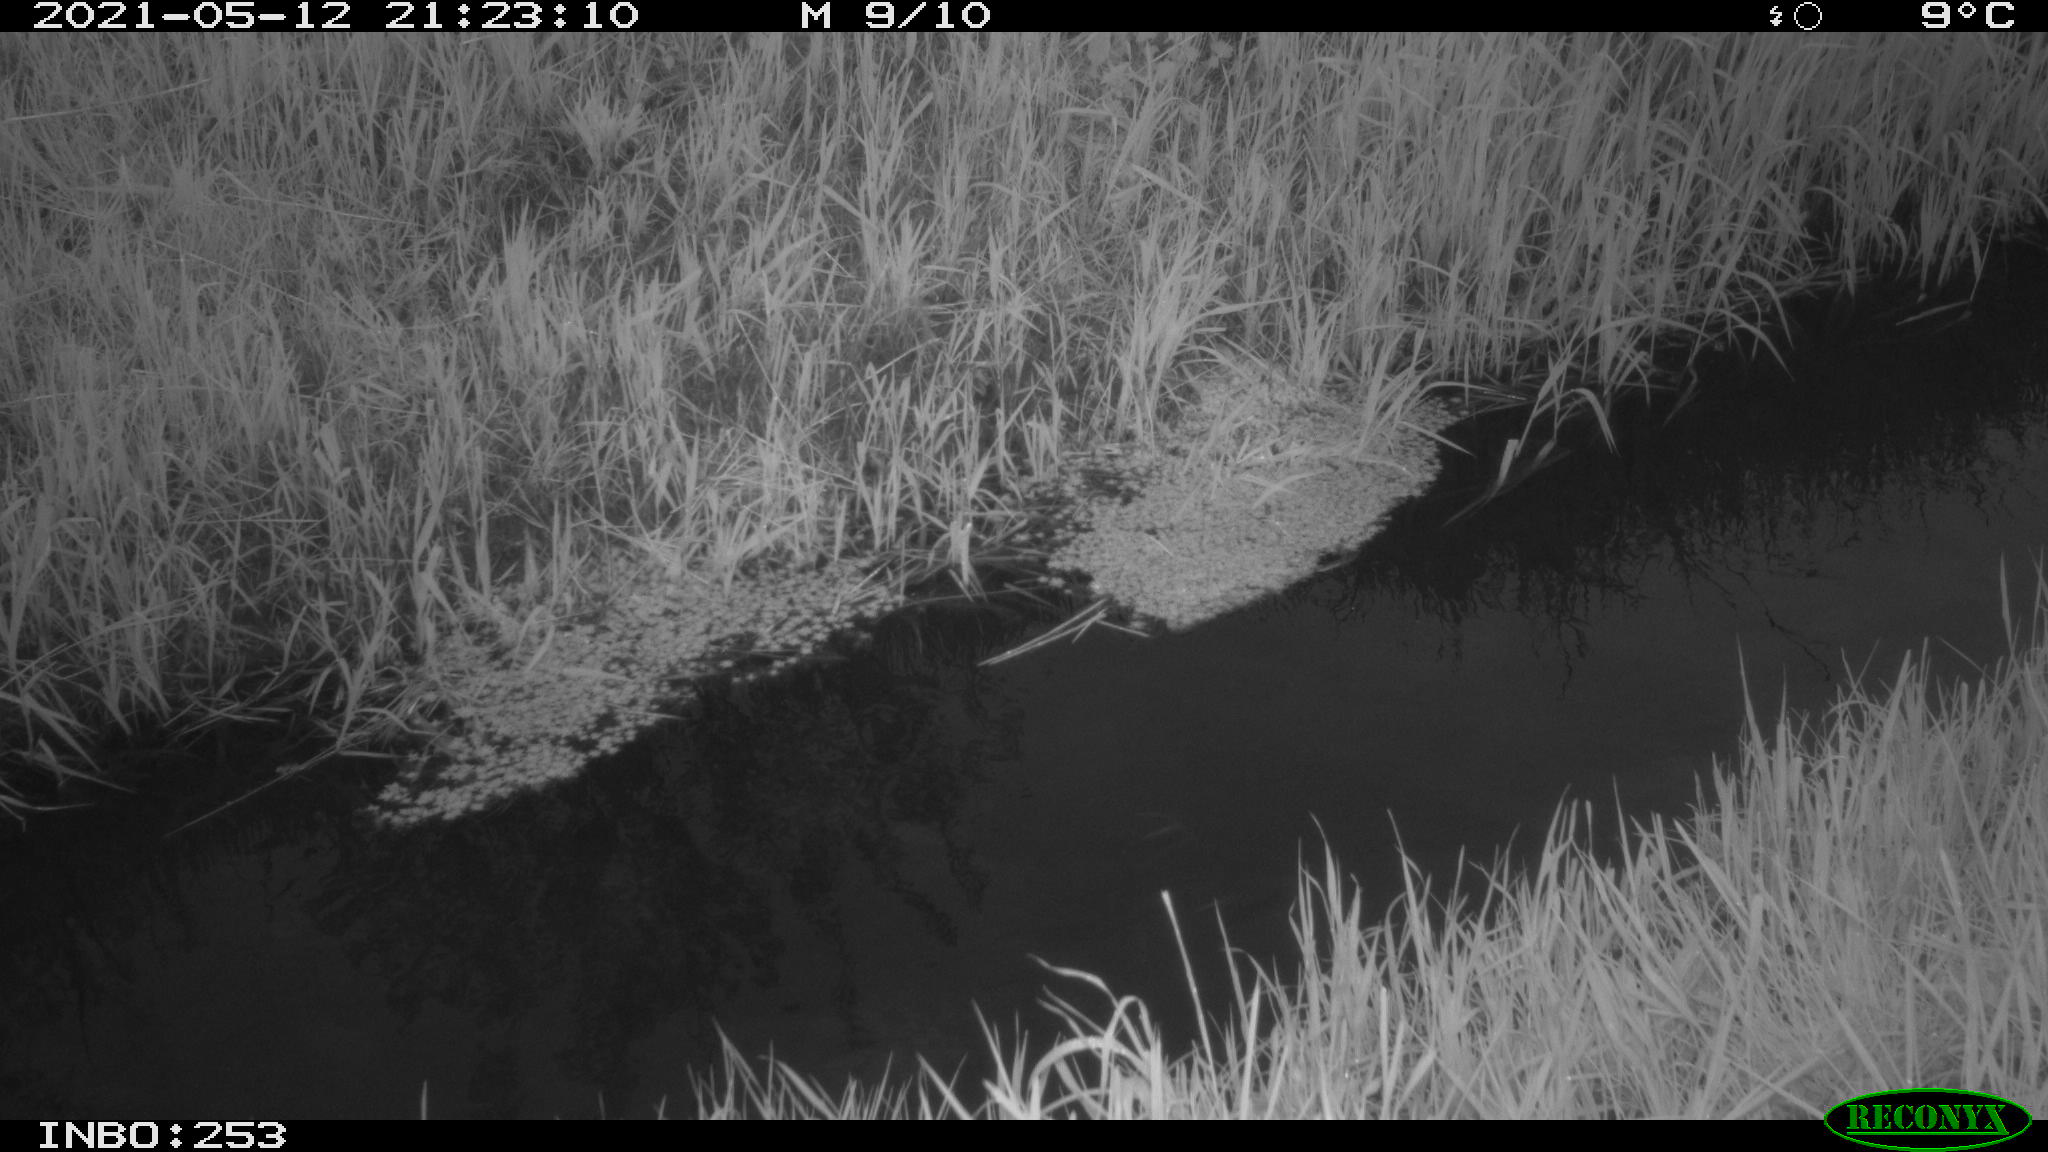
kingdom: Animalia
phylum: Chordata
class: Aves
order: Anseriformes
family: Anatidae
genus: Anas
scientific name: Anas platyrhynchos
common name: Mallard
